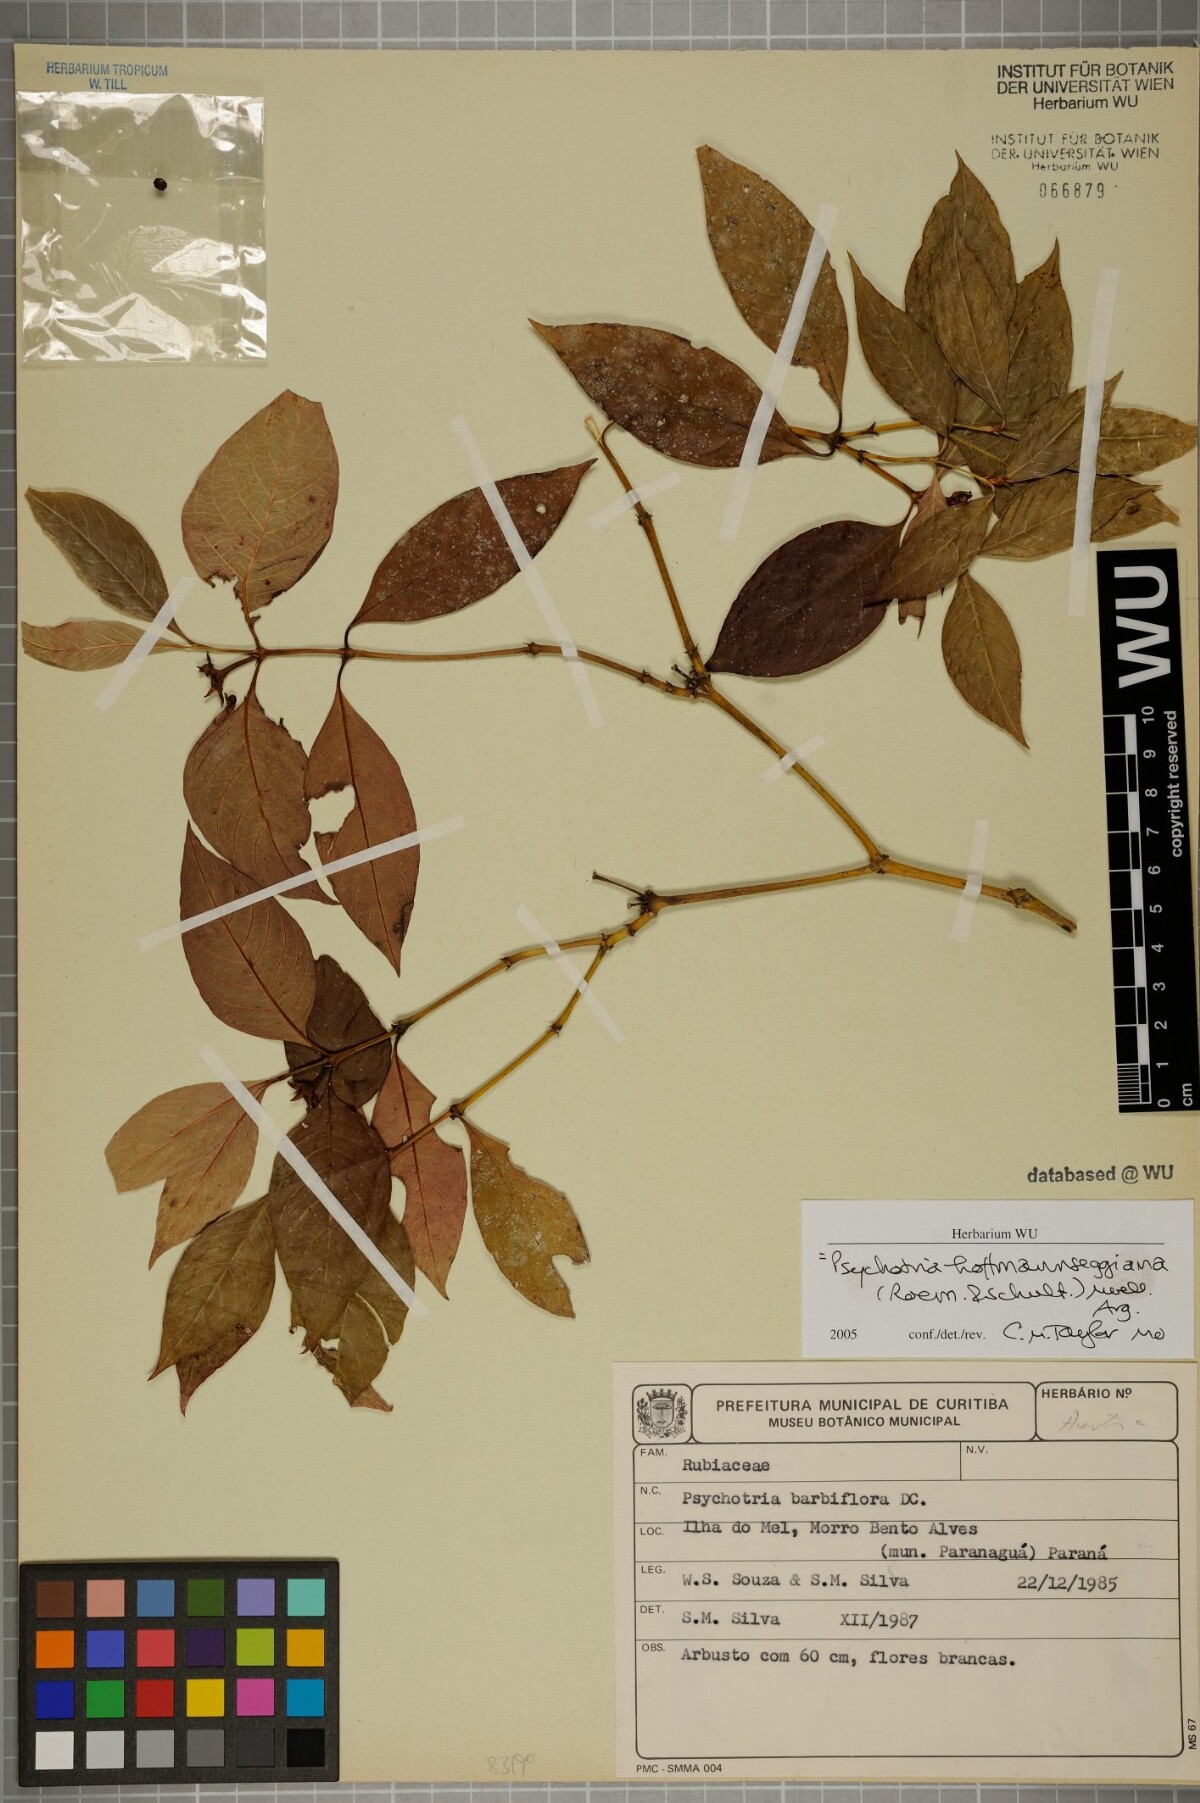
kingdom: Plantae
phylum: Tracheophyta
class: Magnoliopsida
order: Gentianales
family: Rubiaceae
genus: Palicourea
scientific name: Palicourea hoffmannseggiana
